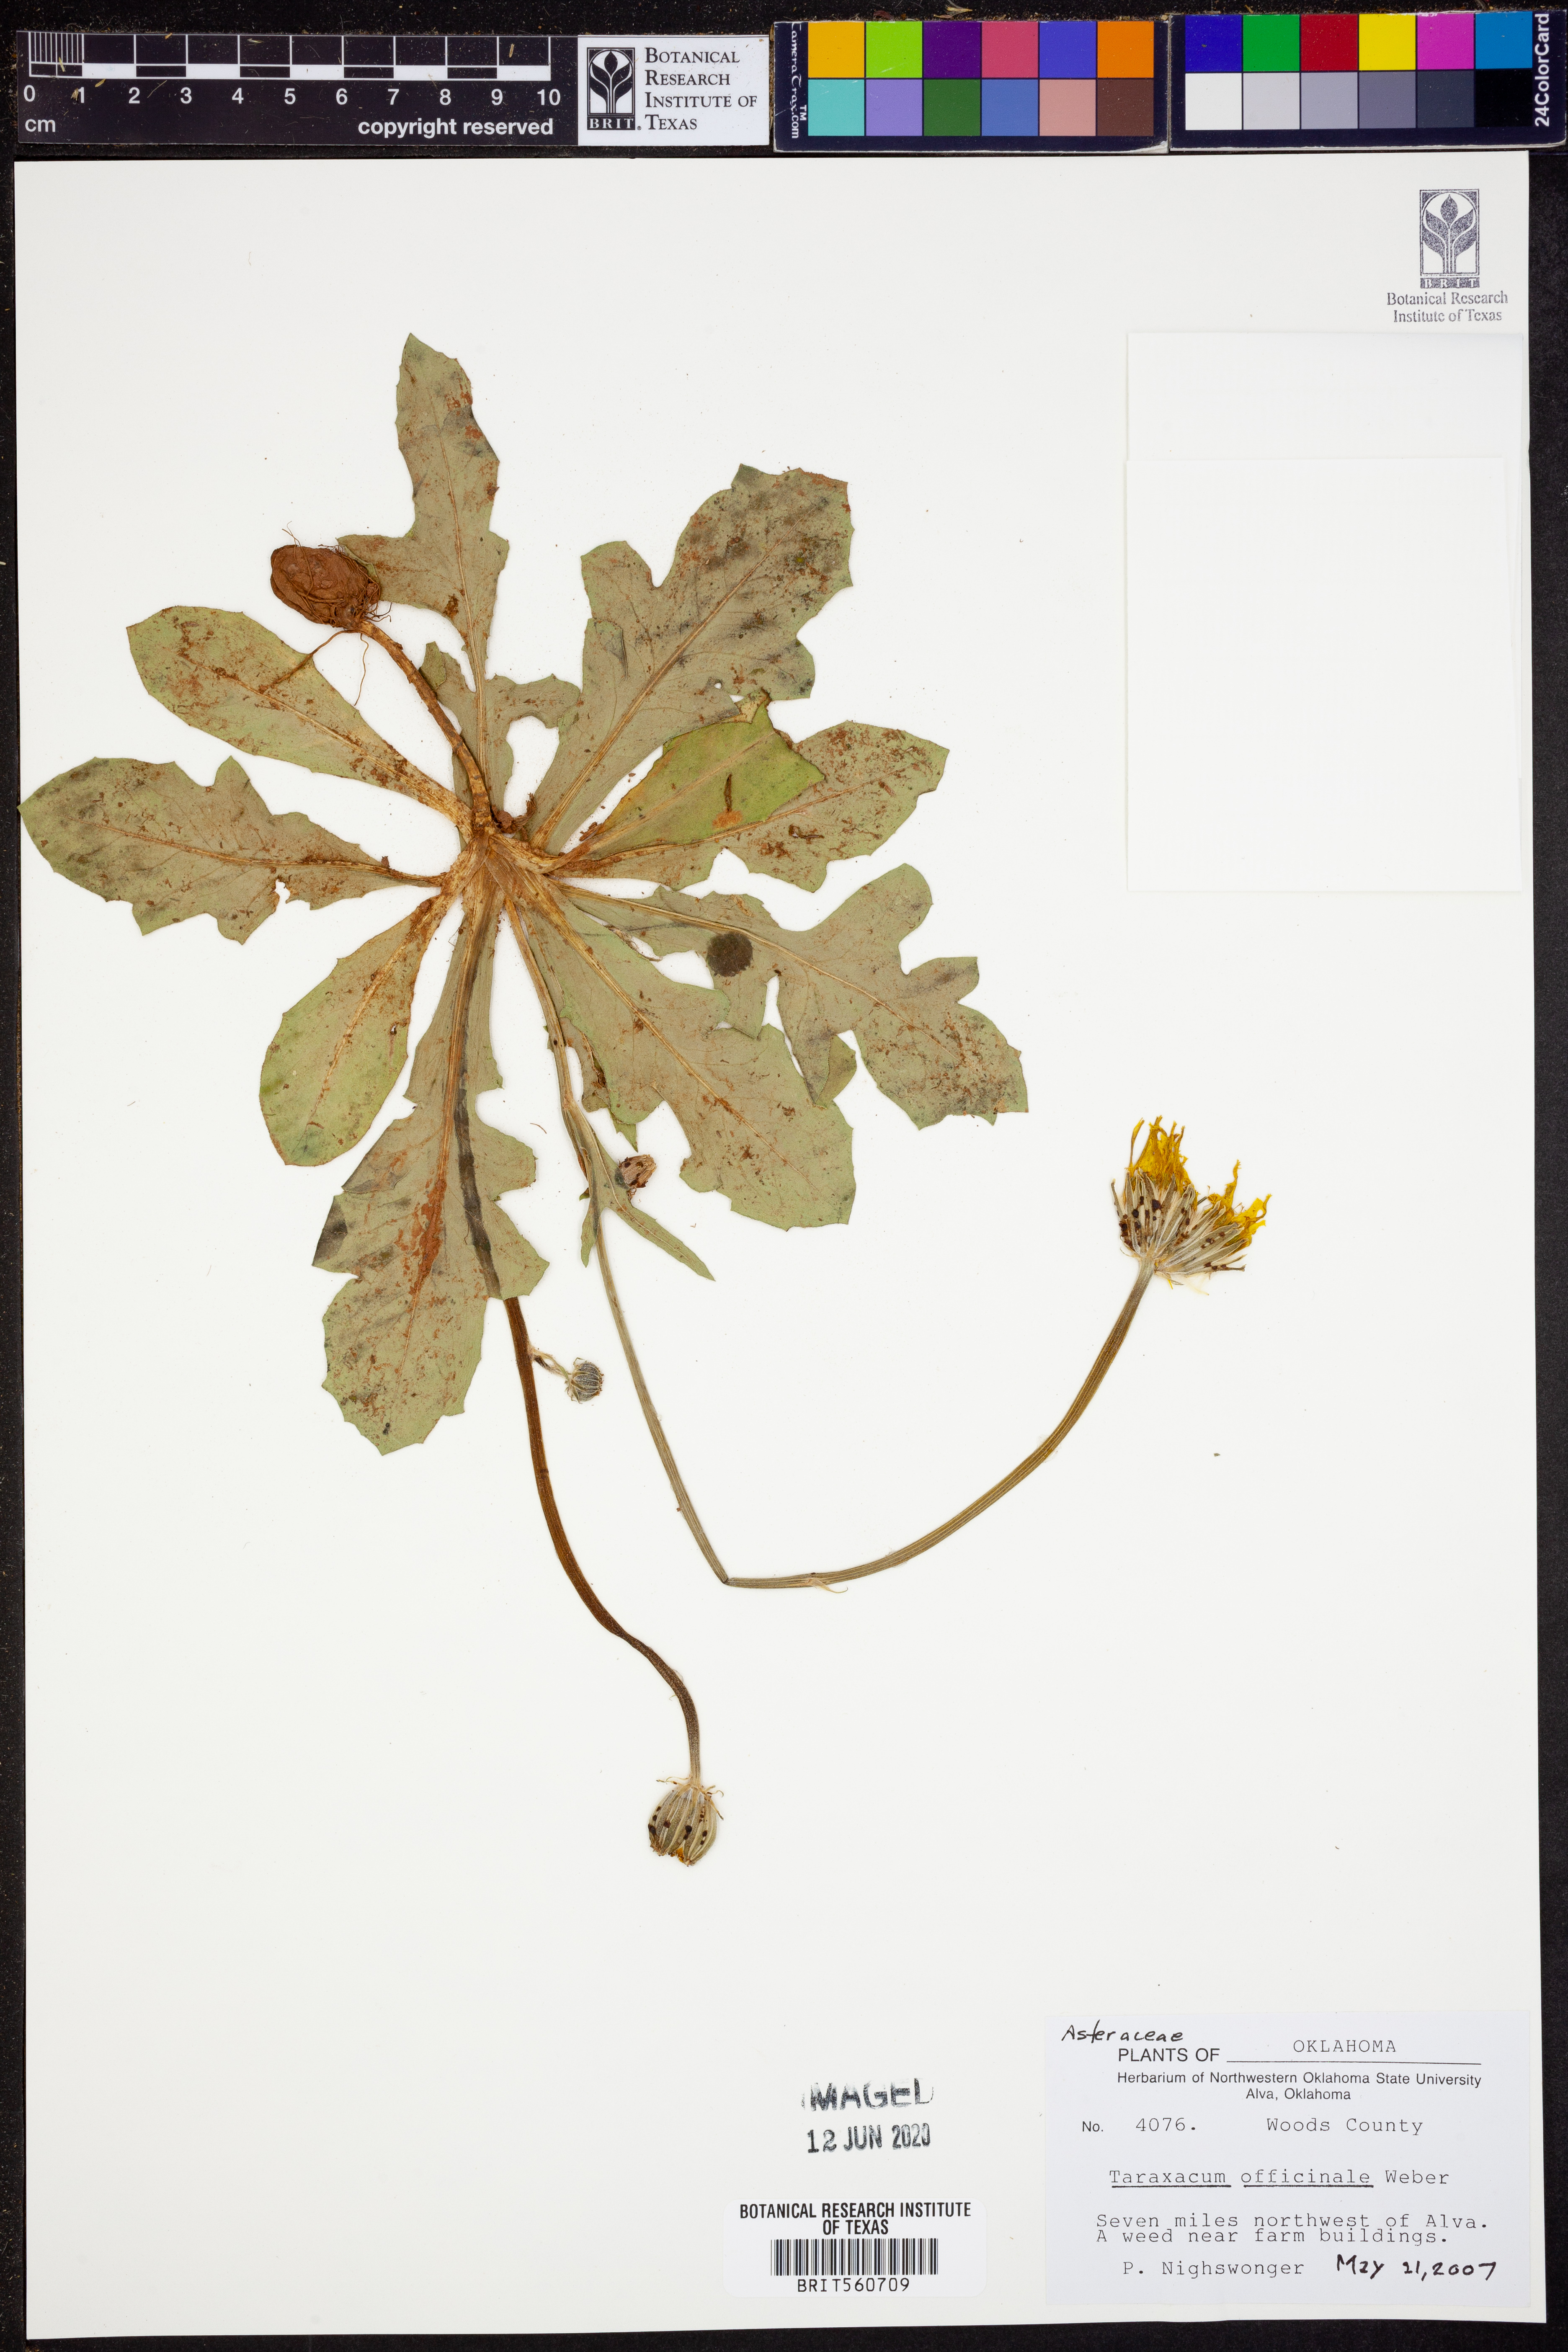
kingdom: Plantae
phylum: Tracheophyta
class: Magnoliopsida
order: Asterales
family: Asteraceae
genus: Taraxacum
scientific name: Taraxacum officinale
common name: Common dandelion
